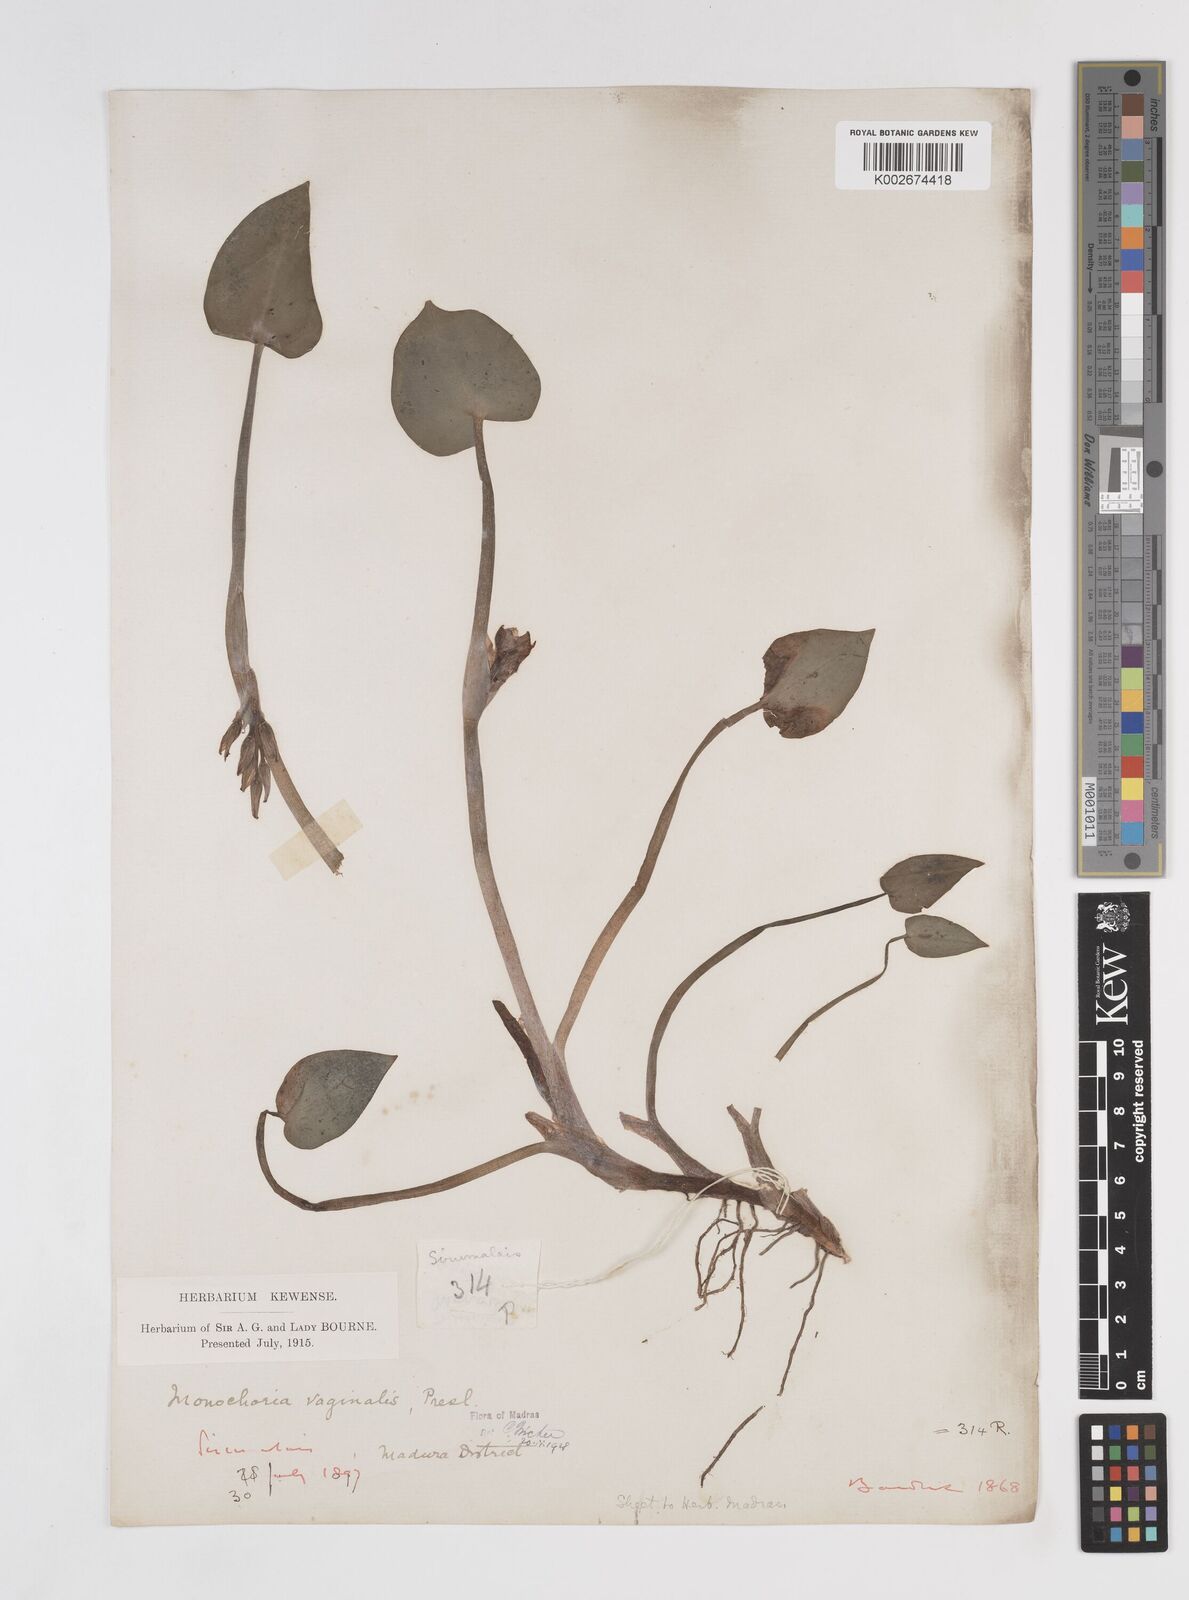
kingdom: Plantae
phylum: Tracheophyta
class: Liliopsida
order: Commelinales
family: Pontederiaceae
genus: Pontederia
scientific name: Pontederia vaginalis
